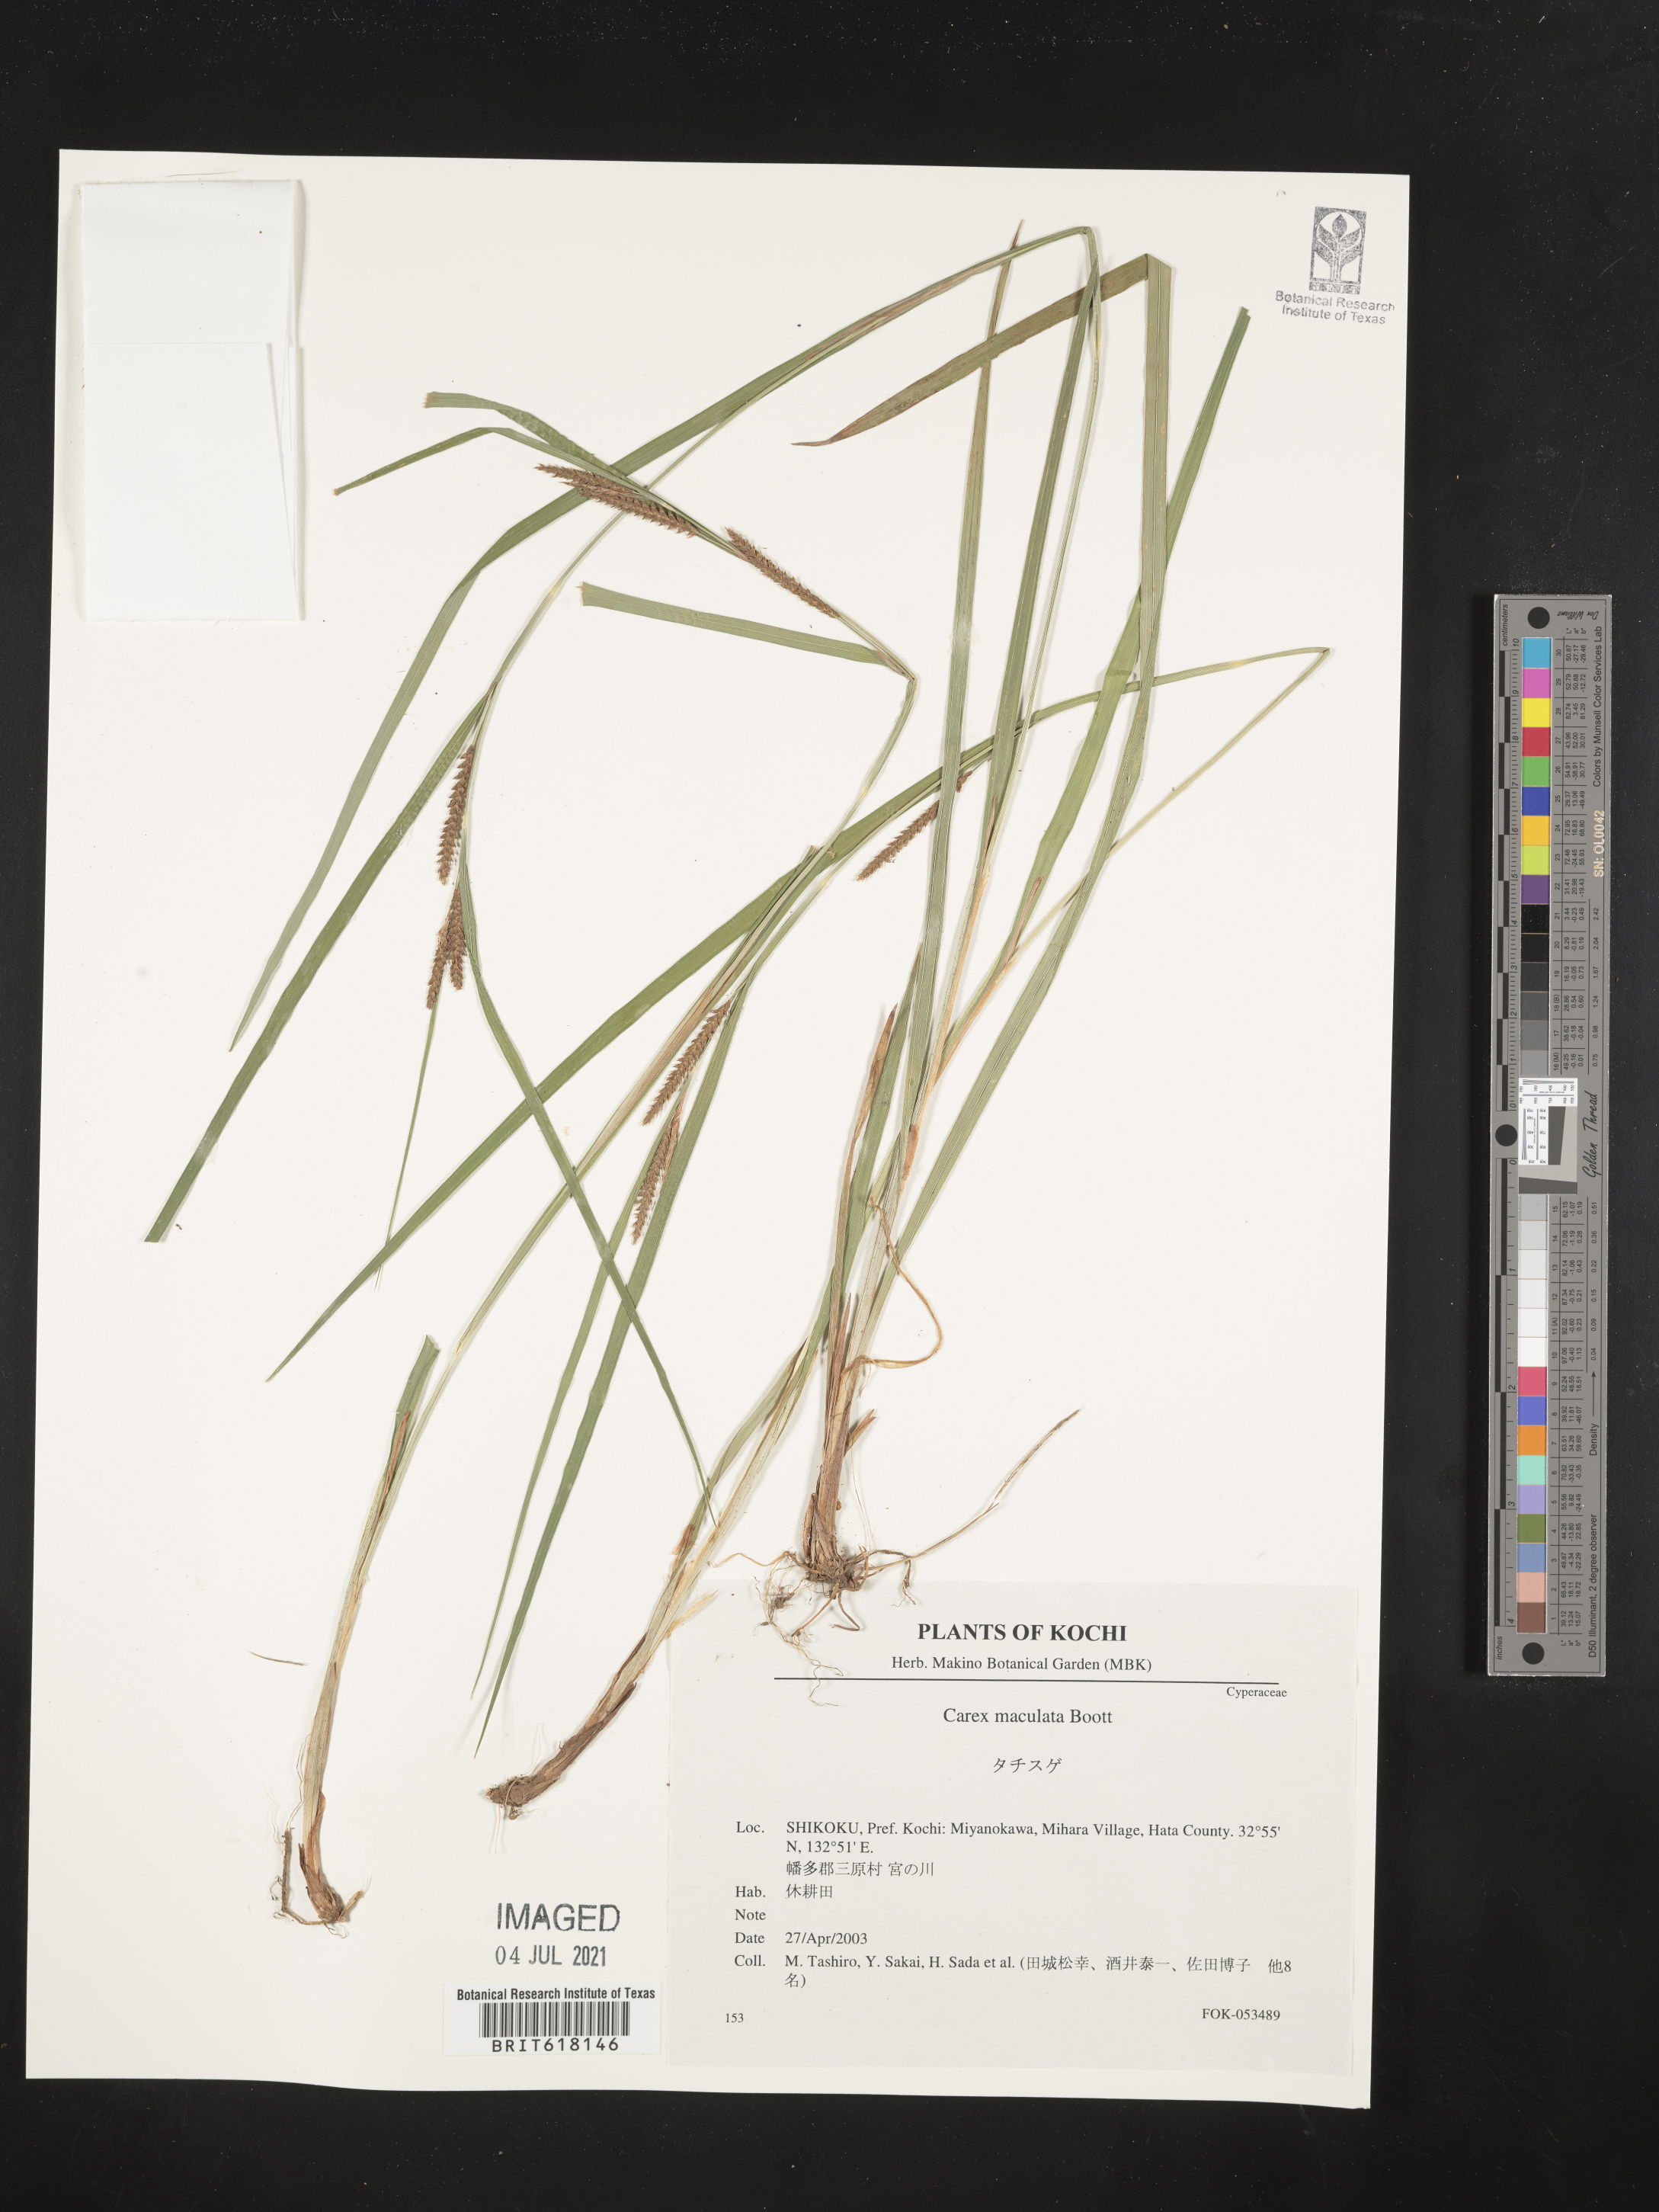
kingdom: Plantae
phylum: Tracheophyta
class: Liliopsida
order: Poales
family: Cyperaceae
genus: Carex
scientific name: Carex maculata
